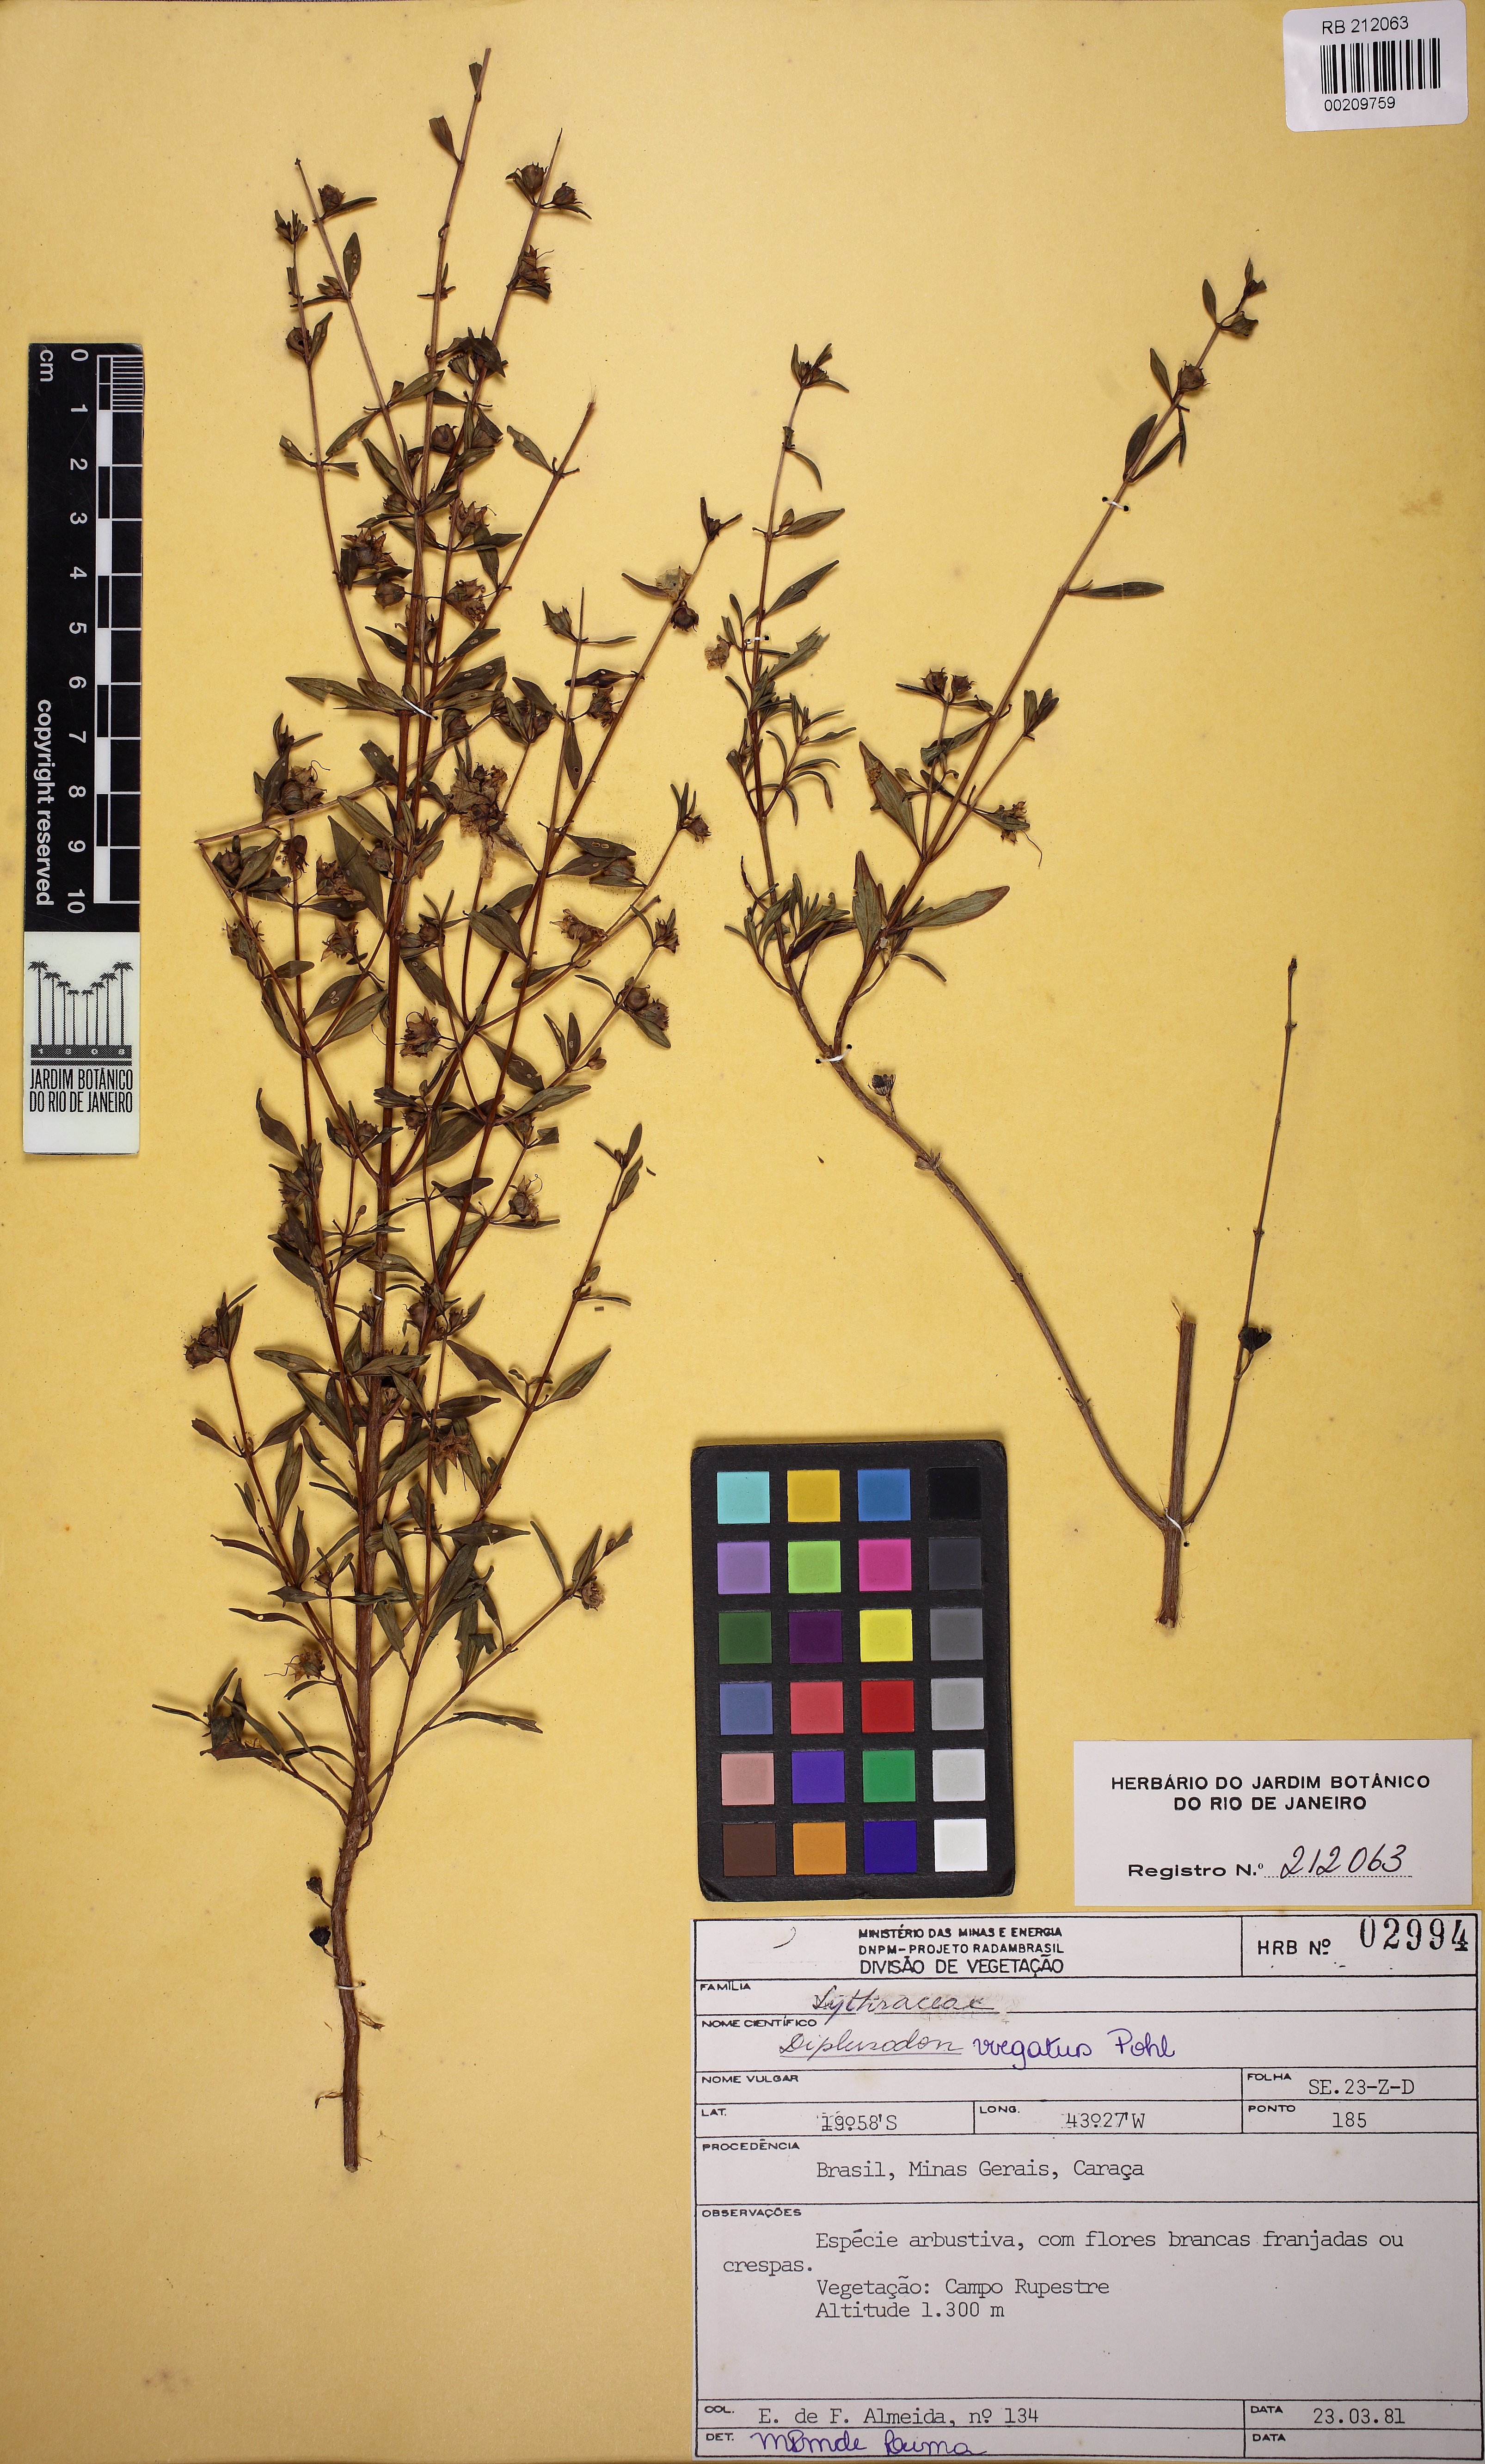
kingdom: Plantae
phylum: Tracheophyta
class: Magnoliopsida
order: Myrtales
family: Lythraceae
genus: Diplusodon
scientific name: Diplusodon virgatus
